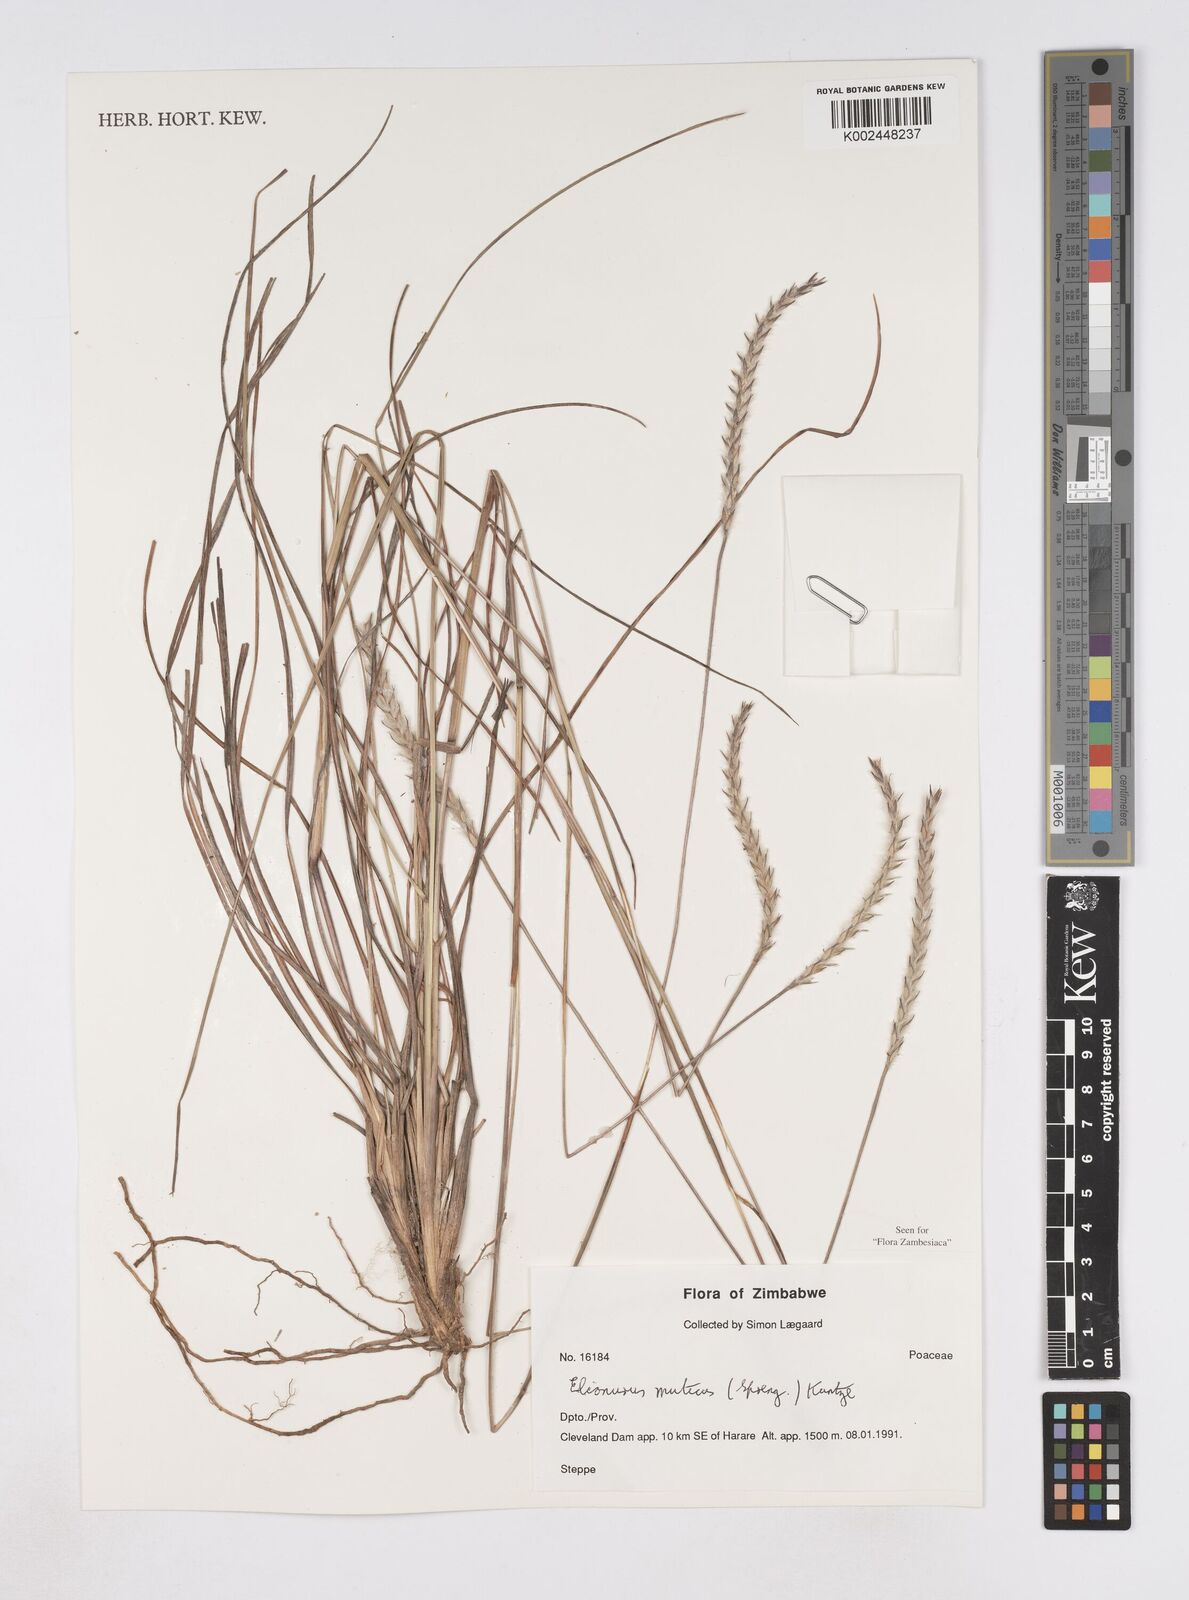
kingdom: Plantae
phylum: Tracheophyta
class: Liliopsida
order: Poales
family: Poaceae
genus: Elionurus
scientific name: Elionurus muticus
